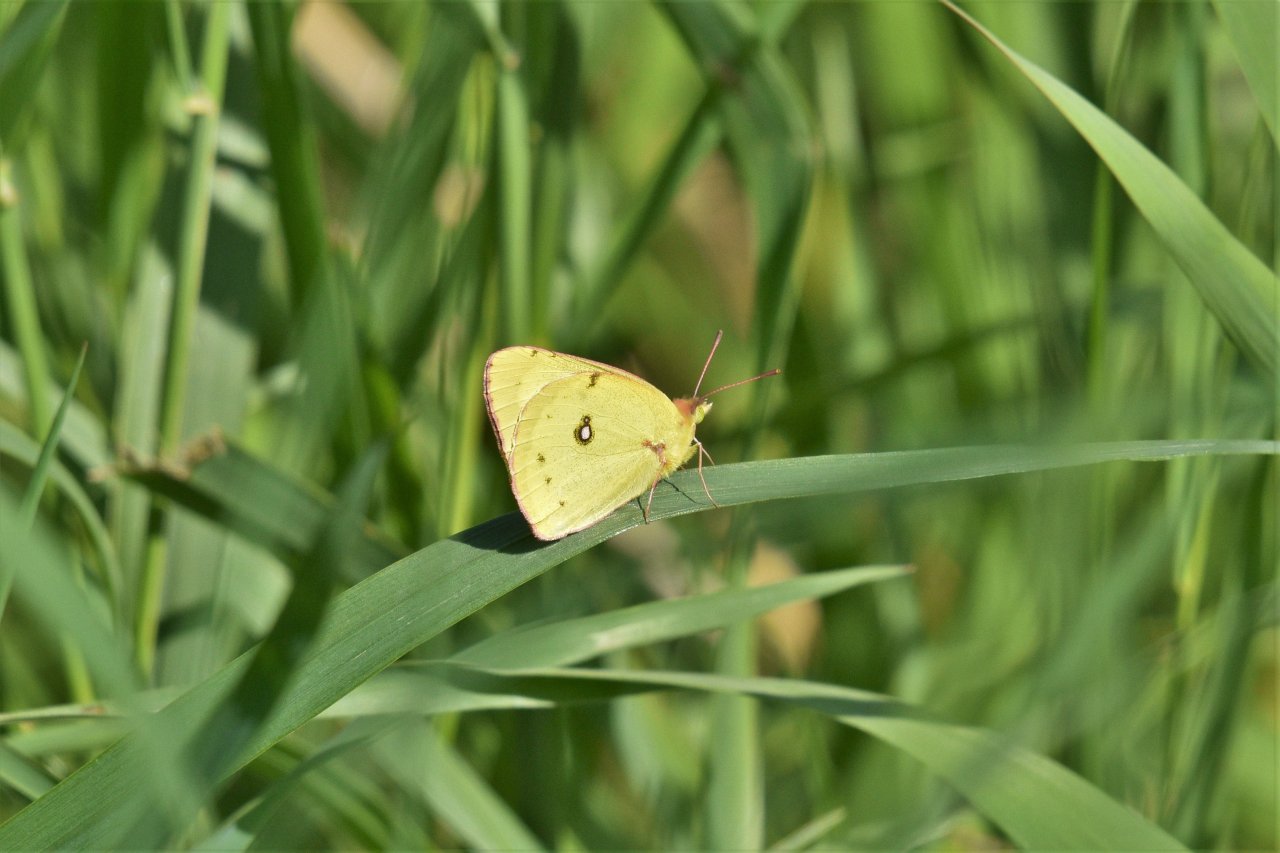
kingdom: Animalia
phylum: Arthropoda
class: Insecta
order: Lepidoptera
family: Pieridae
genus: Colias
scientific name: Colias philodice
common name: Clouded Sulphur
